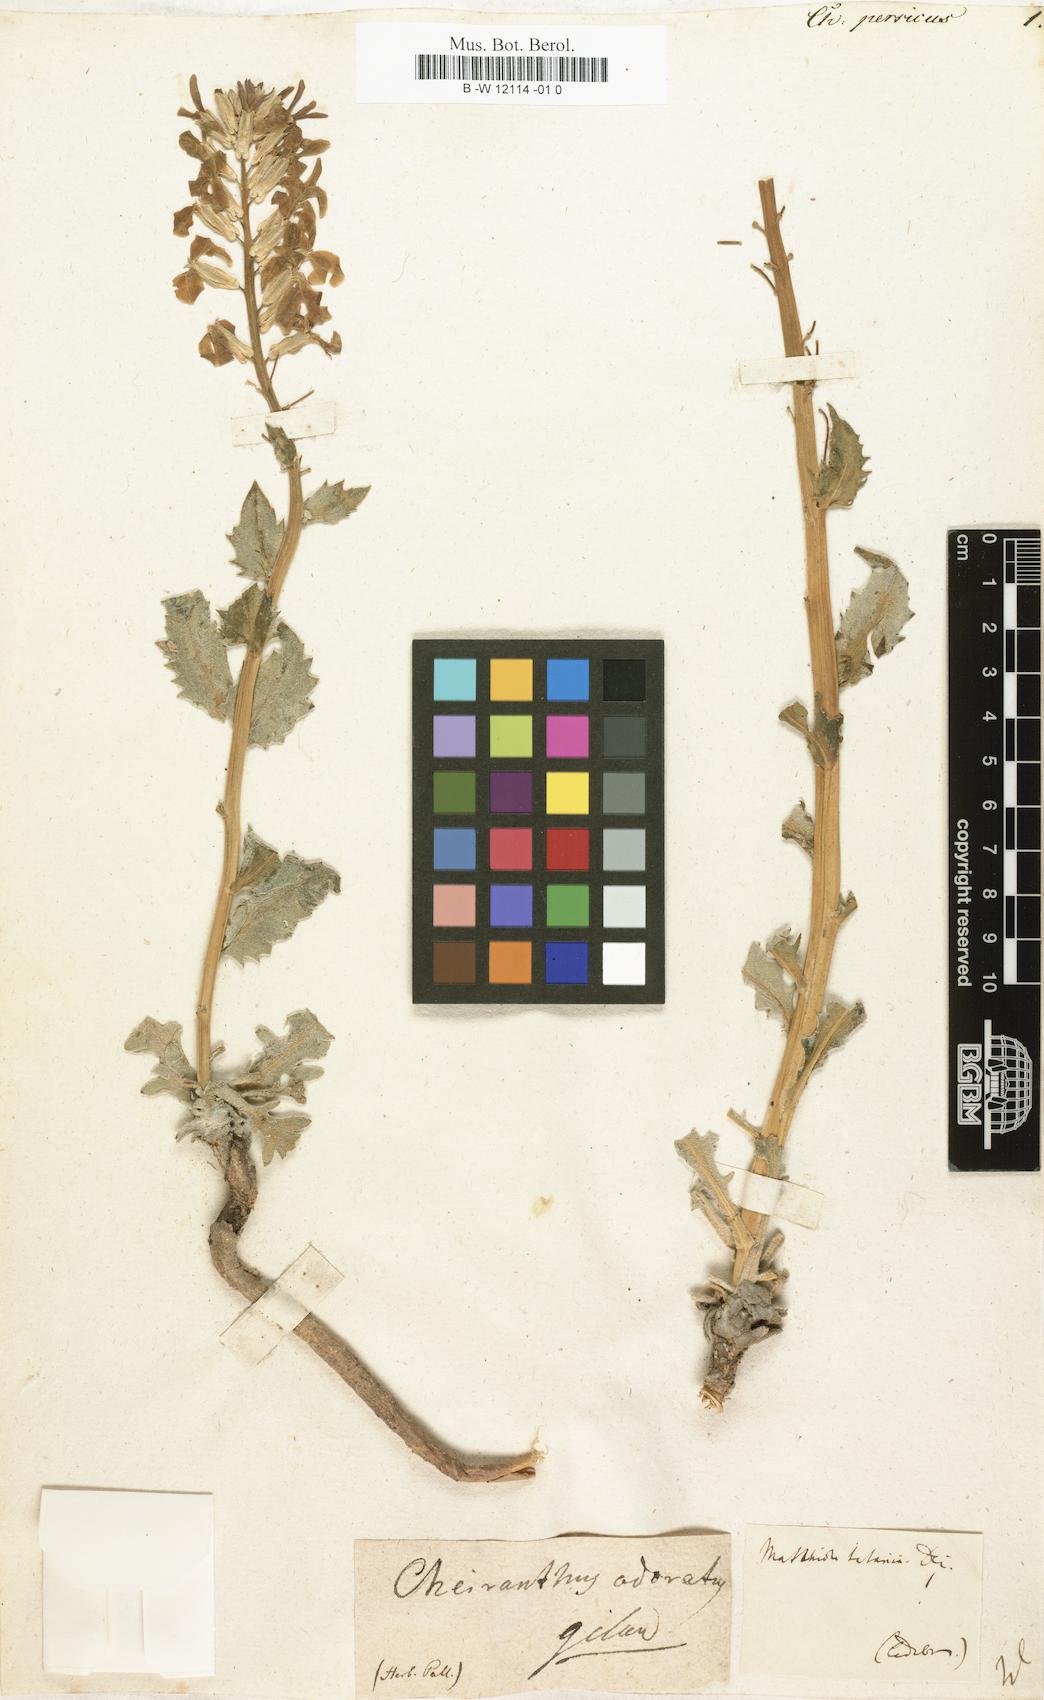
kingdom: Plantae
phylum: Tracheophyta
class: Magnoliopsida
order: Brassicales
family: Brassicaceae
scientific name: Brassicaceae
